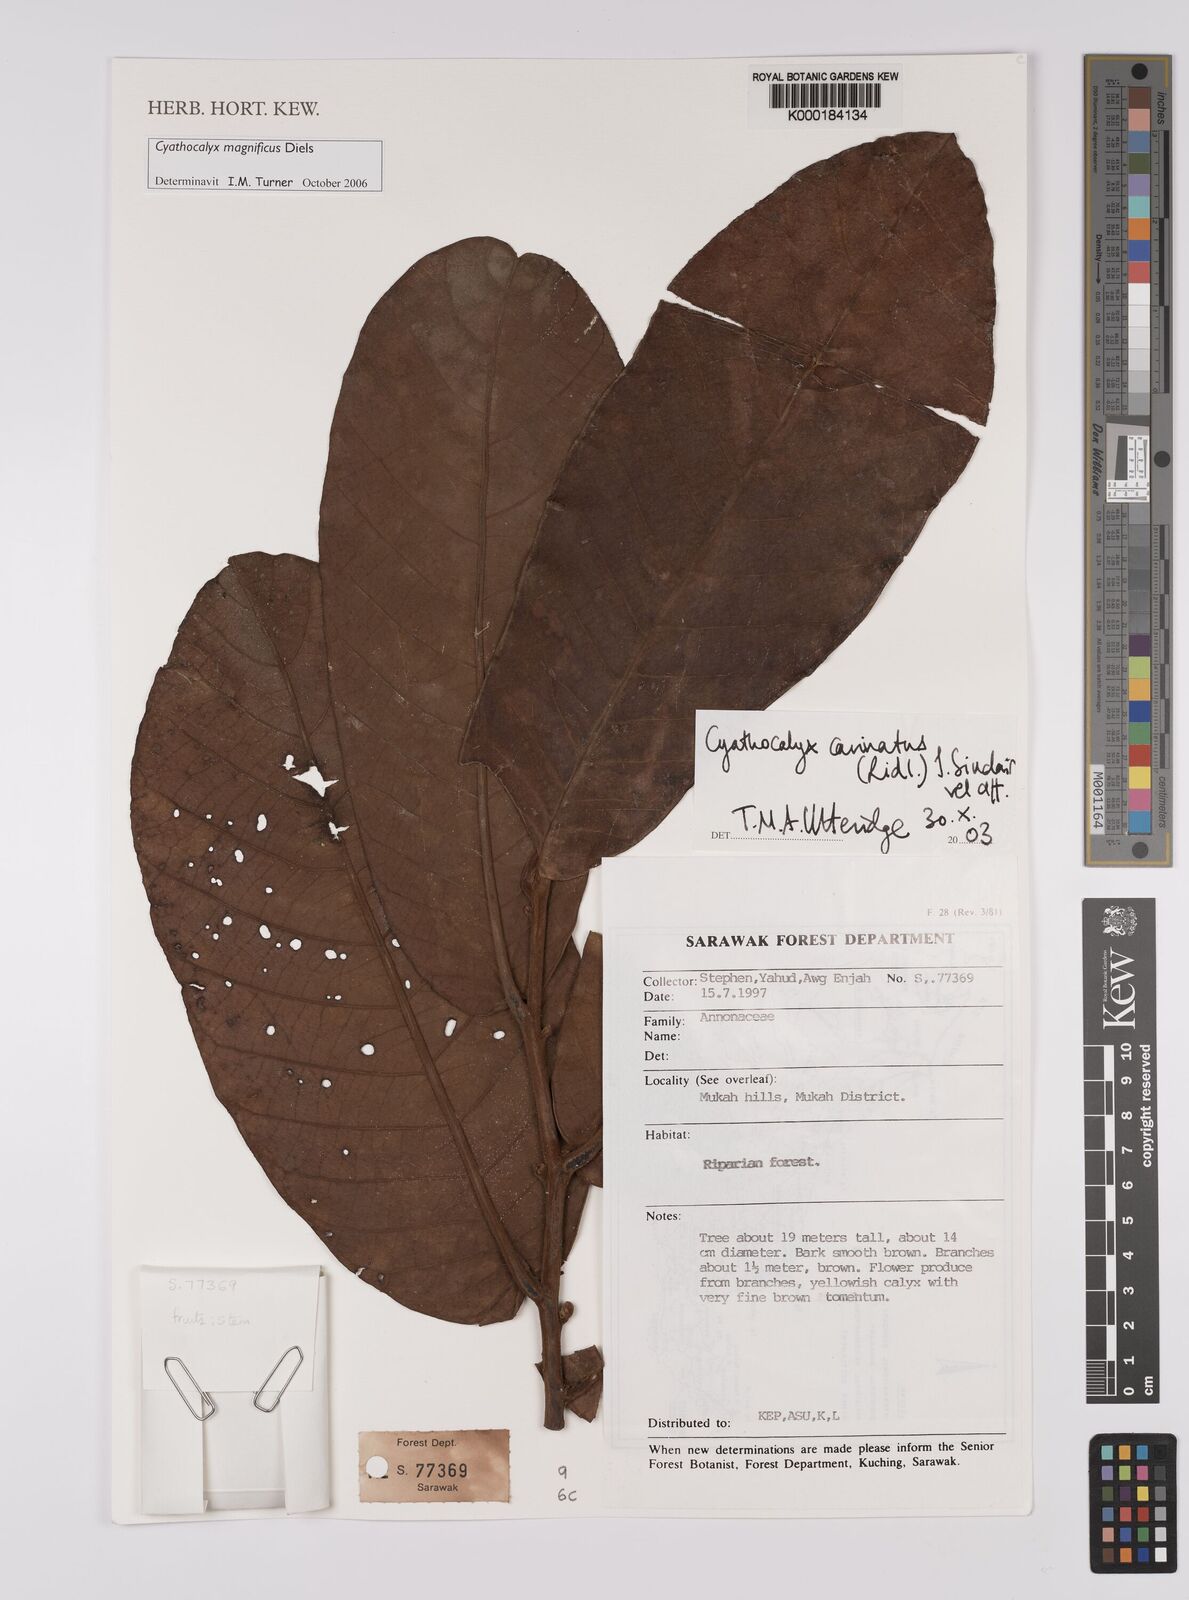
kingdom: Plantae
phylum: Tracheophyta
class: Magnoliopsida
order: Magnoliales
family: Annonaceae
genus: Drepananthus
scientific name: Drepananthus carinatus
